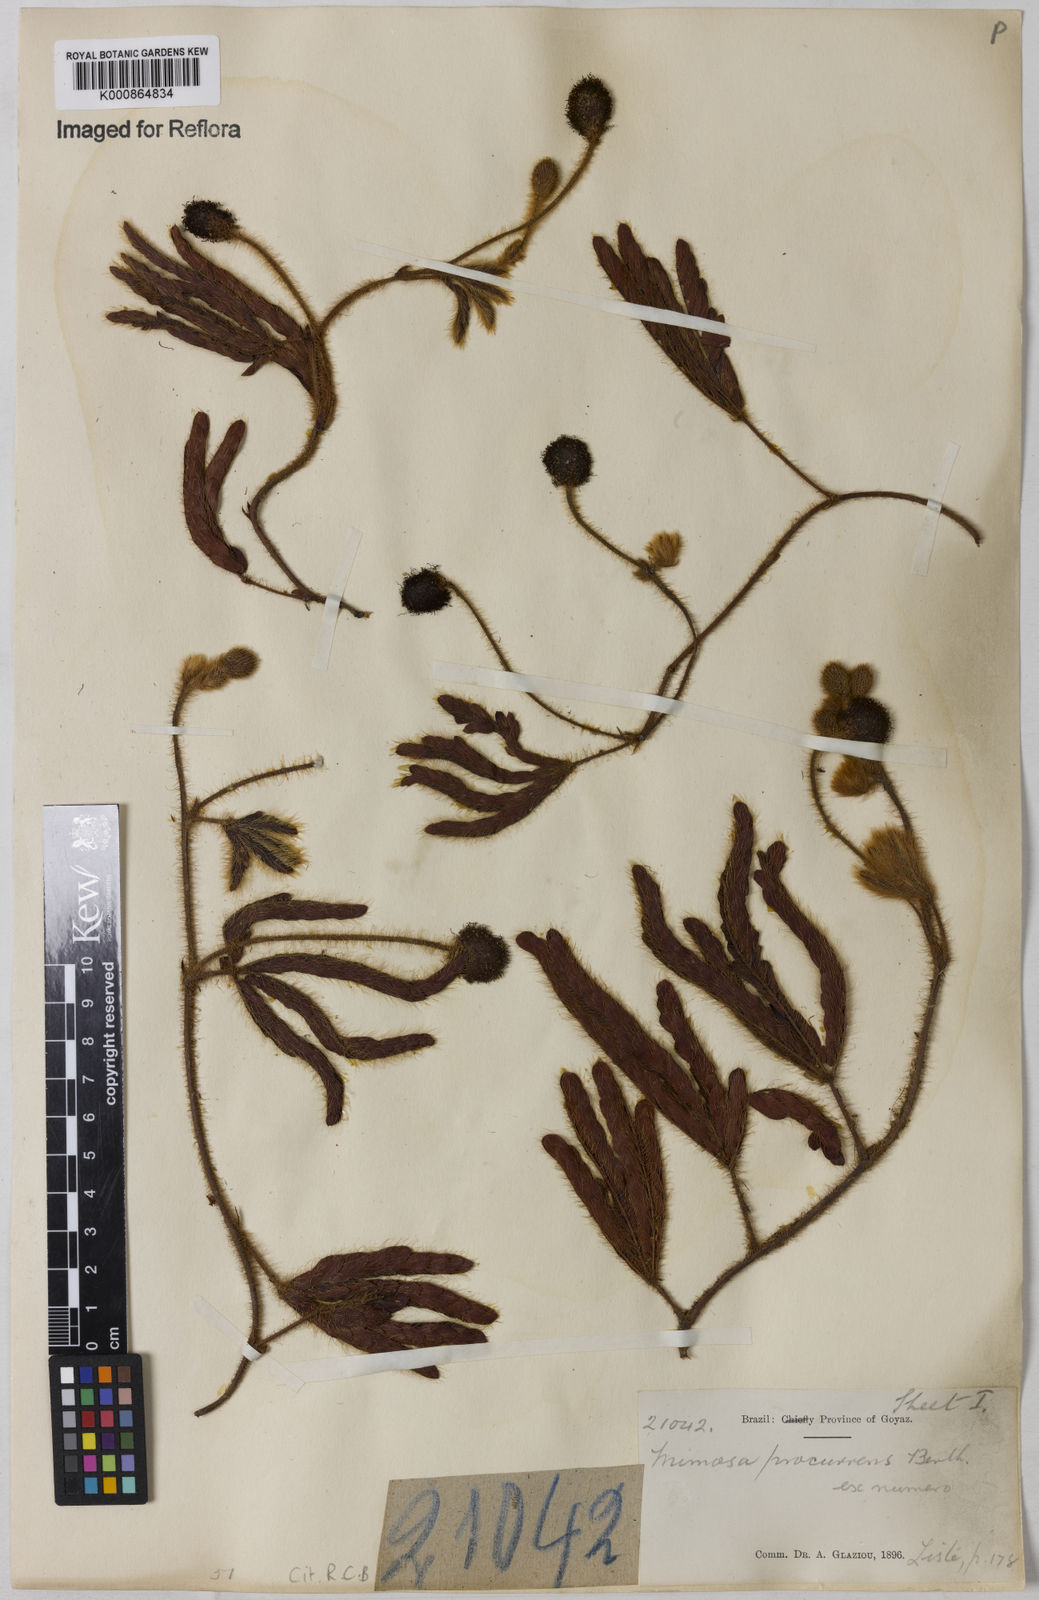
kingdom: Plantae
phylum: Tracheophyta
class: Magnoliopsida
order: Fabales
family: Fabaceae
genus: Mimosa
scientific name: Mimosa procurrens
